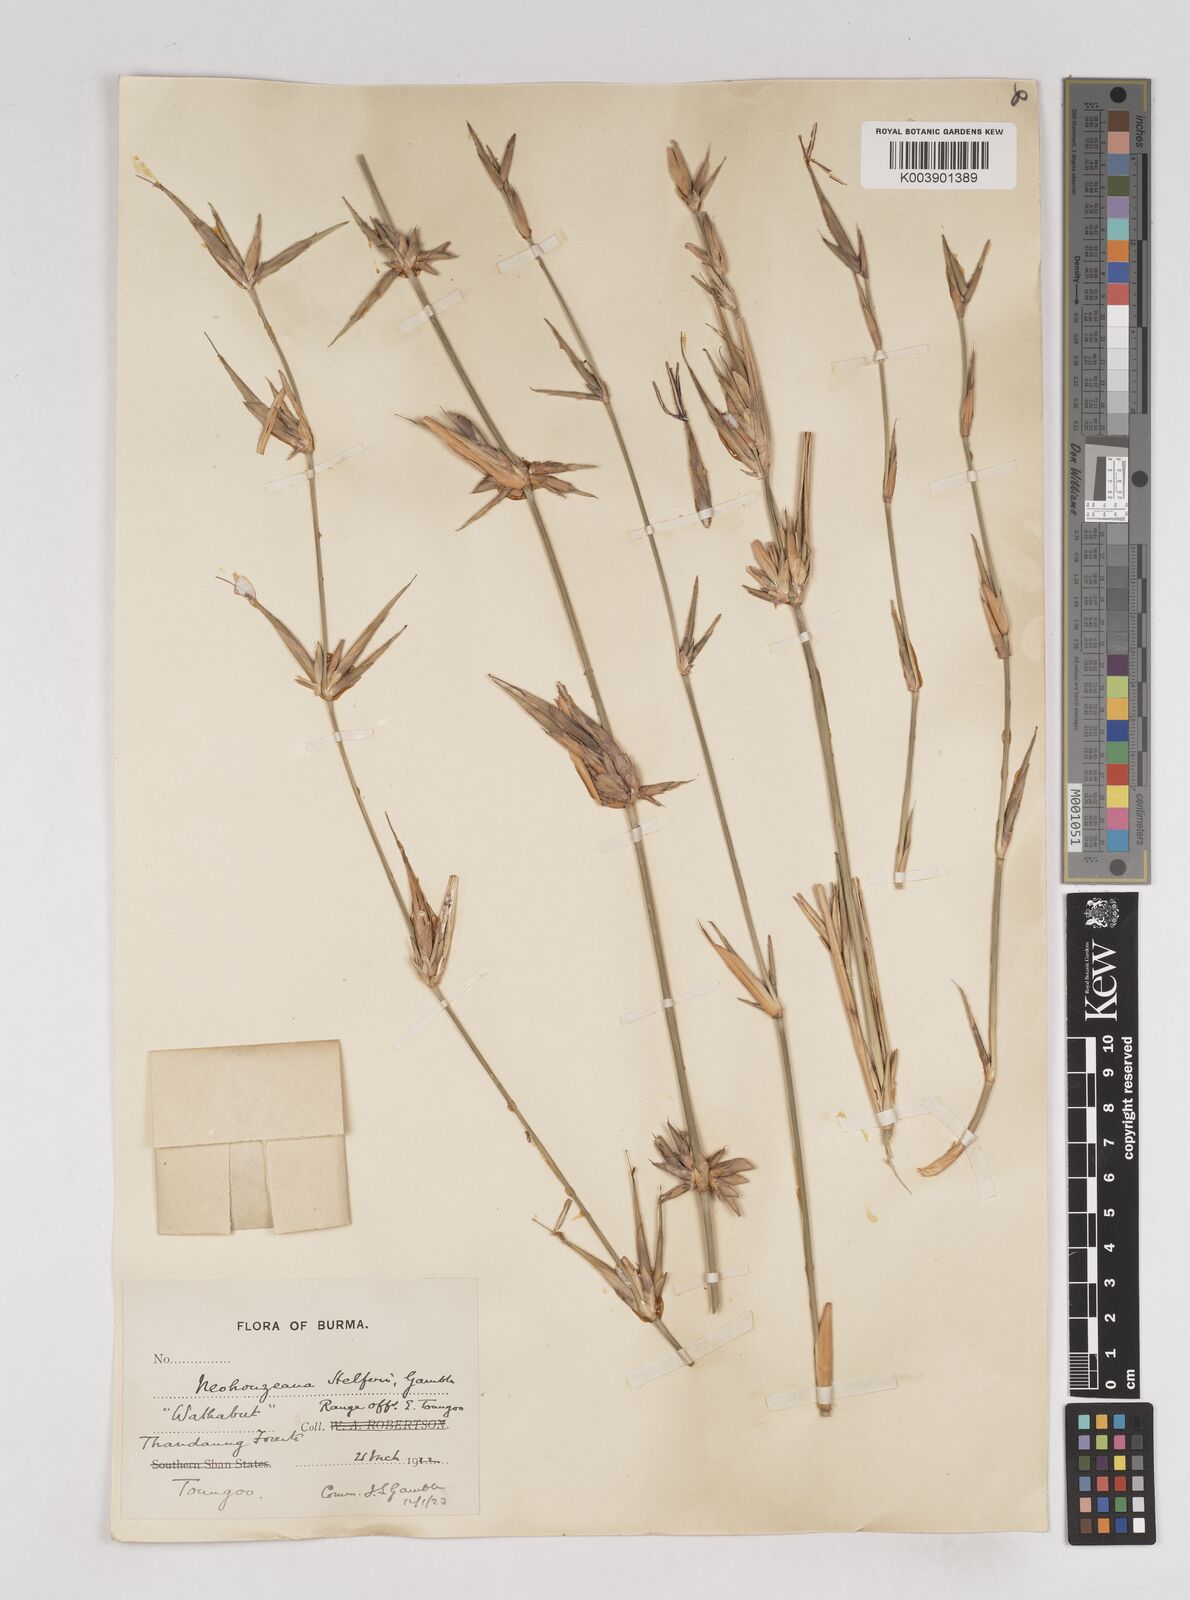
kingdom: Plantae
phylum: Tracheophyta
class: Liliopsida
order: Poales
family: Poaceae
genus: Schizostachyum
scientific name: Schizostachyum helferi
